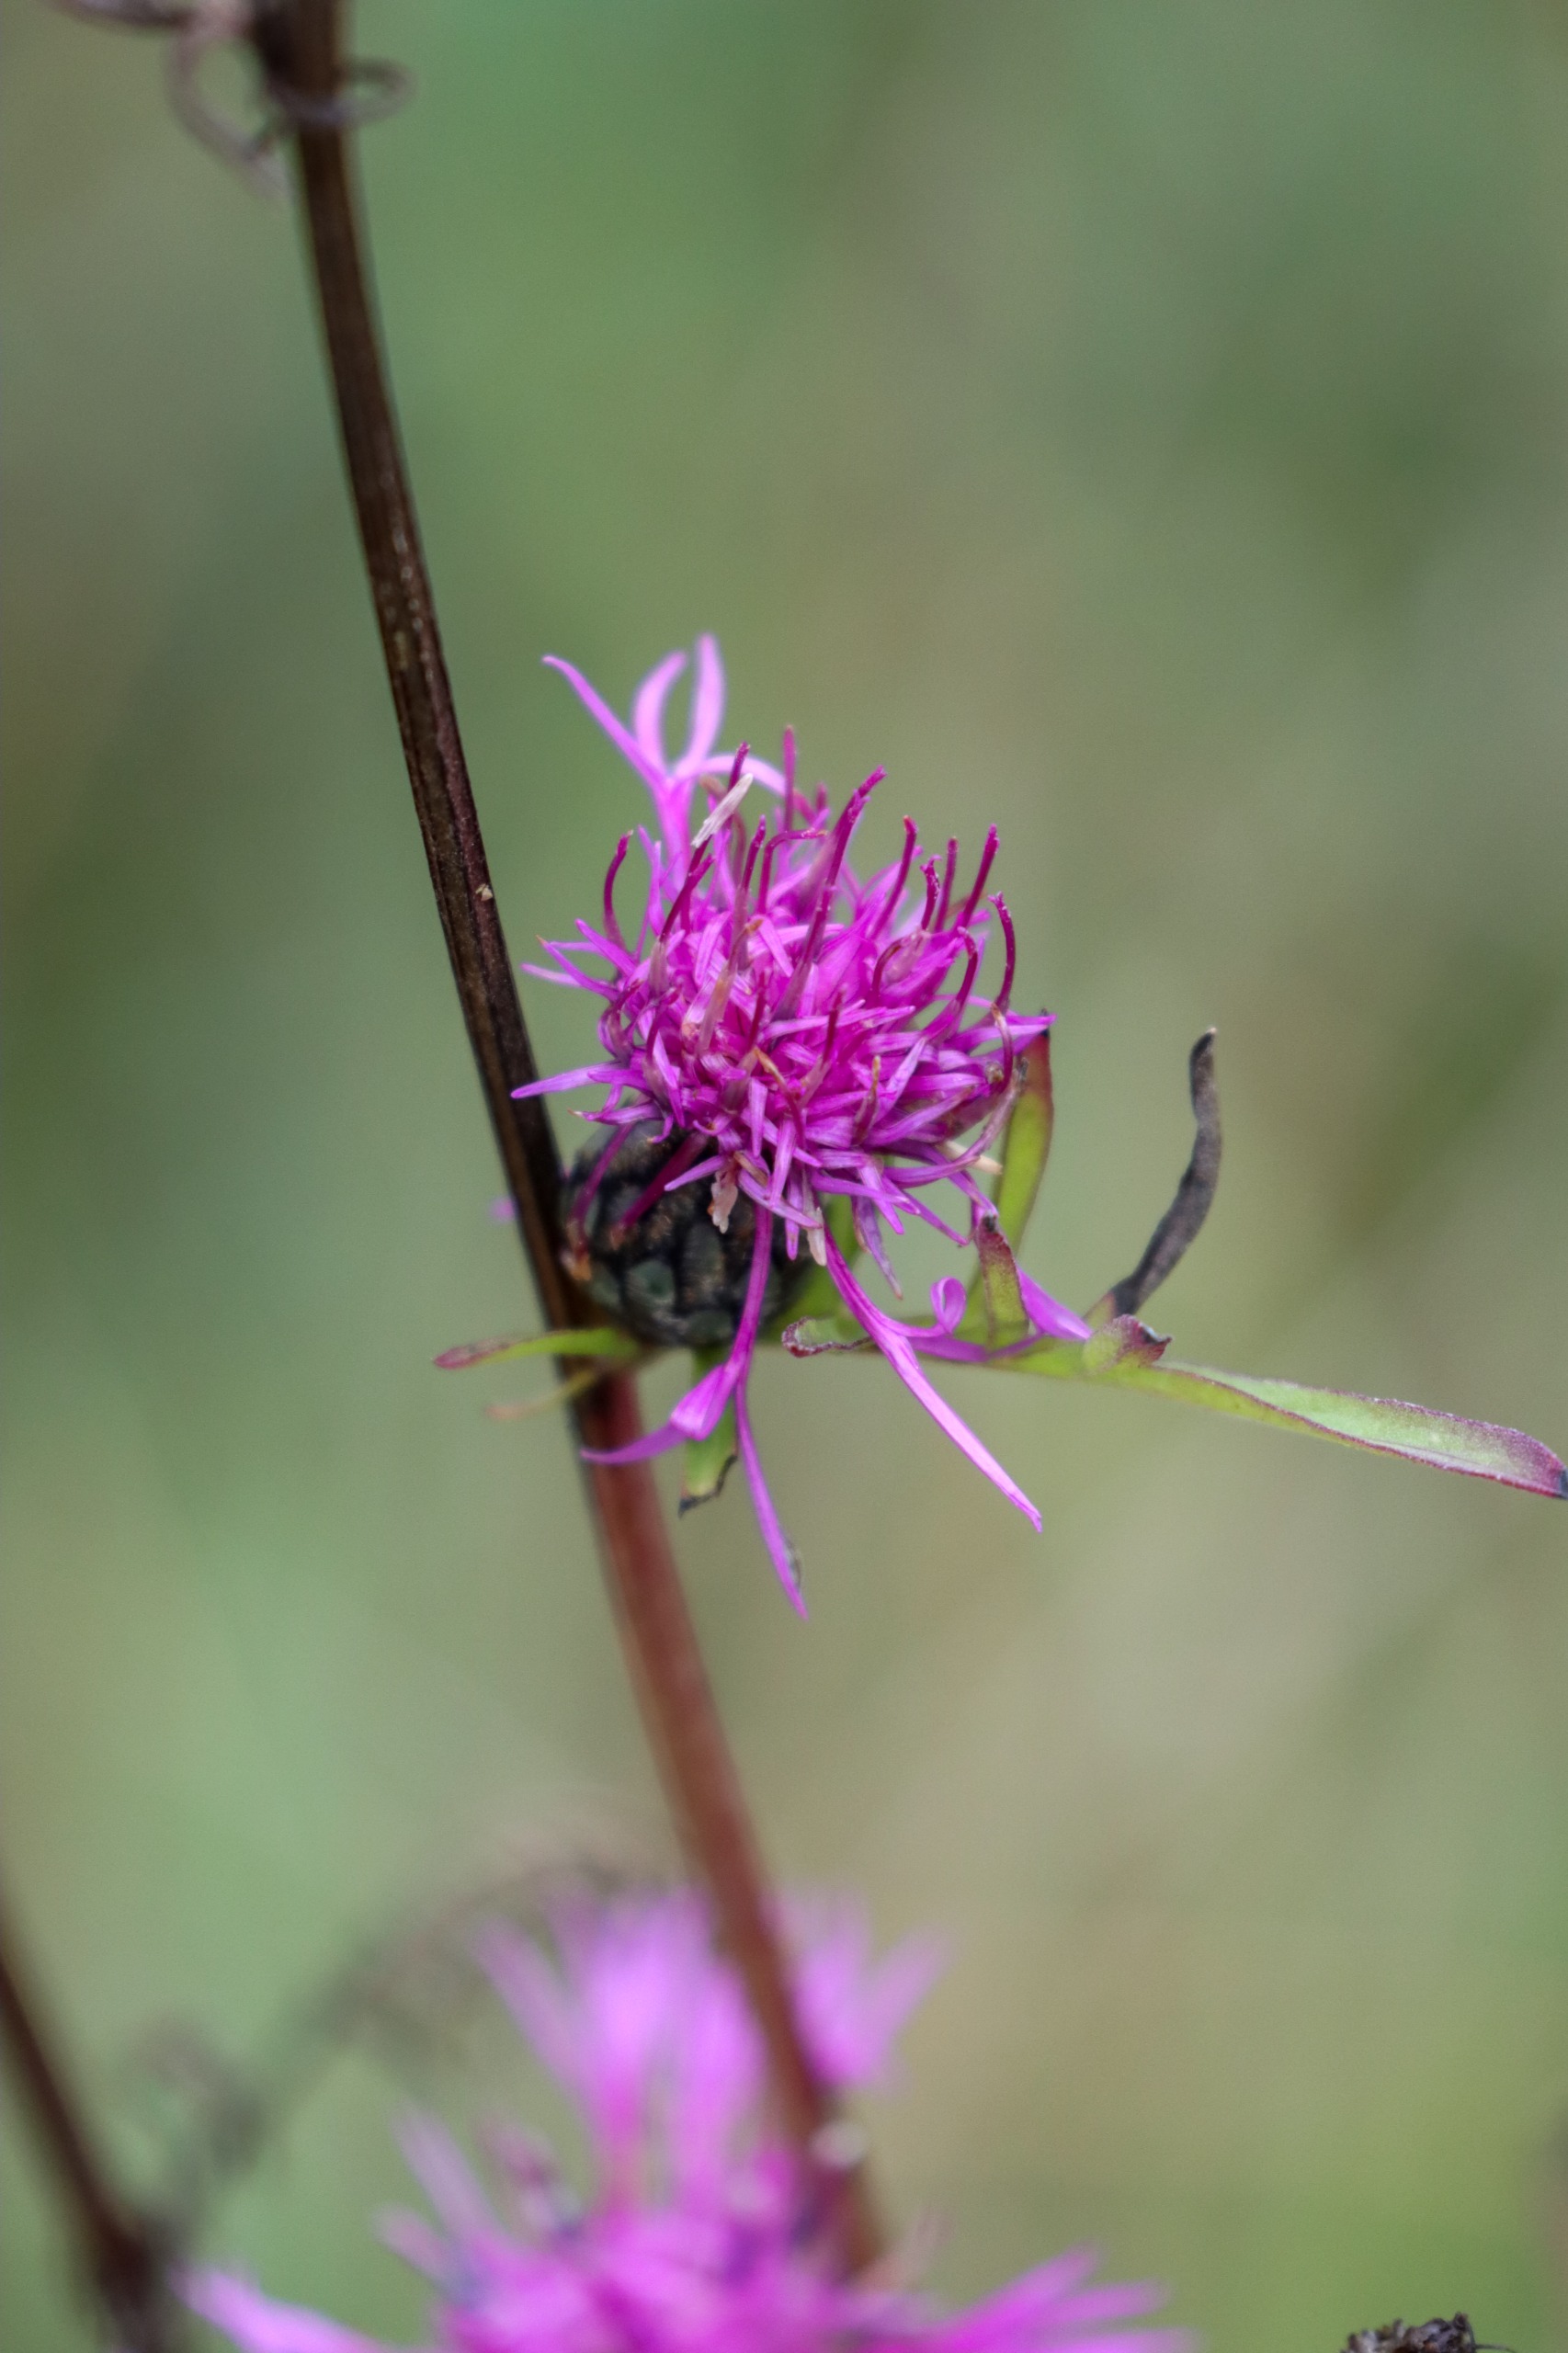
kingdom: Plantae
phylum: Tracheophyta
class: Magnoliopsida
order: Asterales
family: Asteraceae
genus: Centaurea
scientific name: Centaurea scabiosa
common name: Stor knopurt
